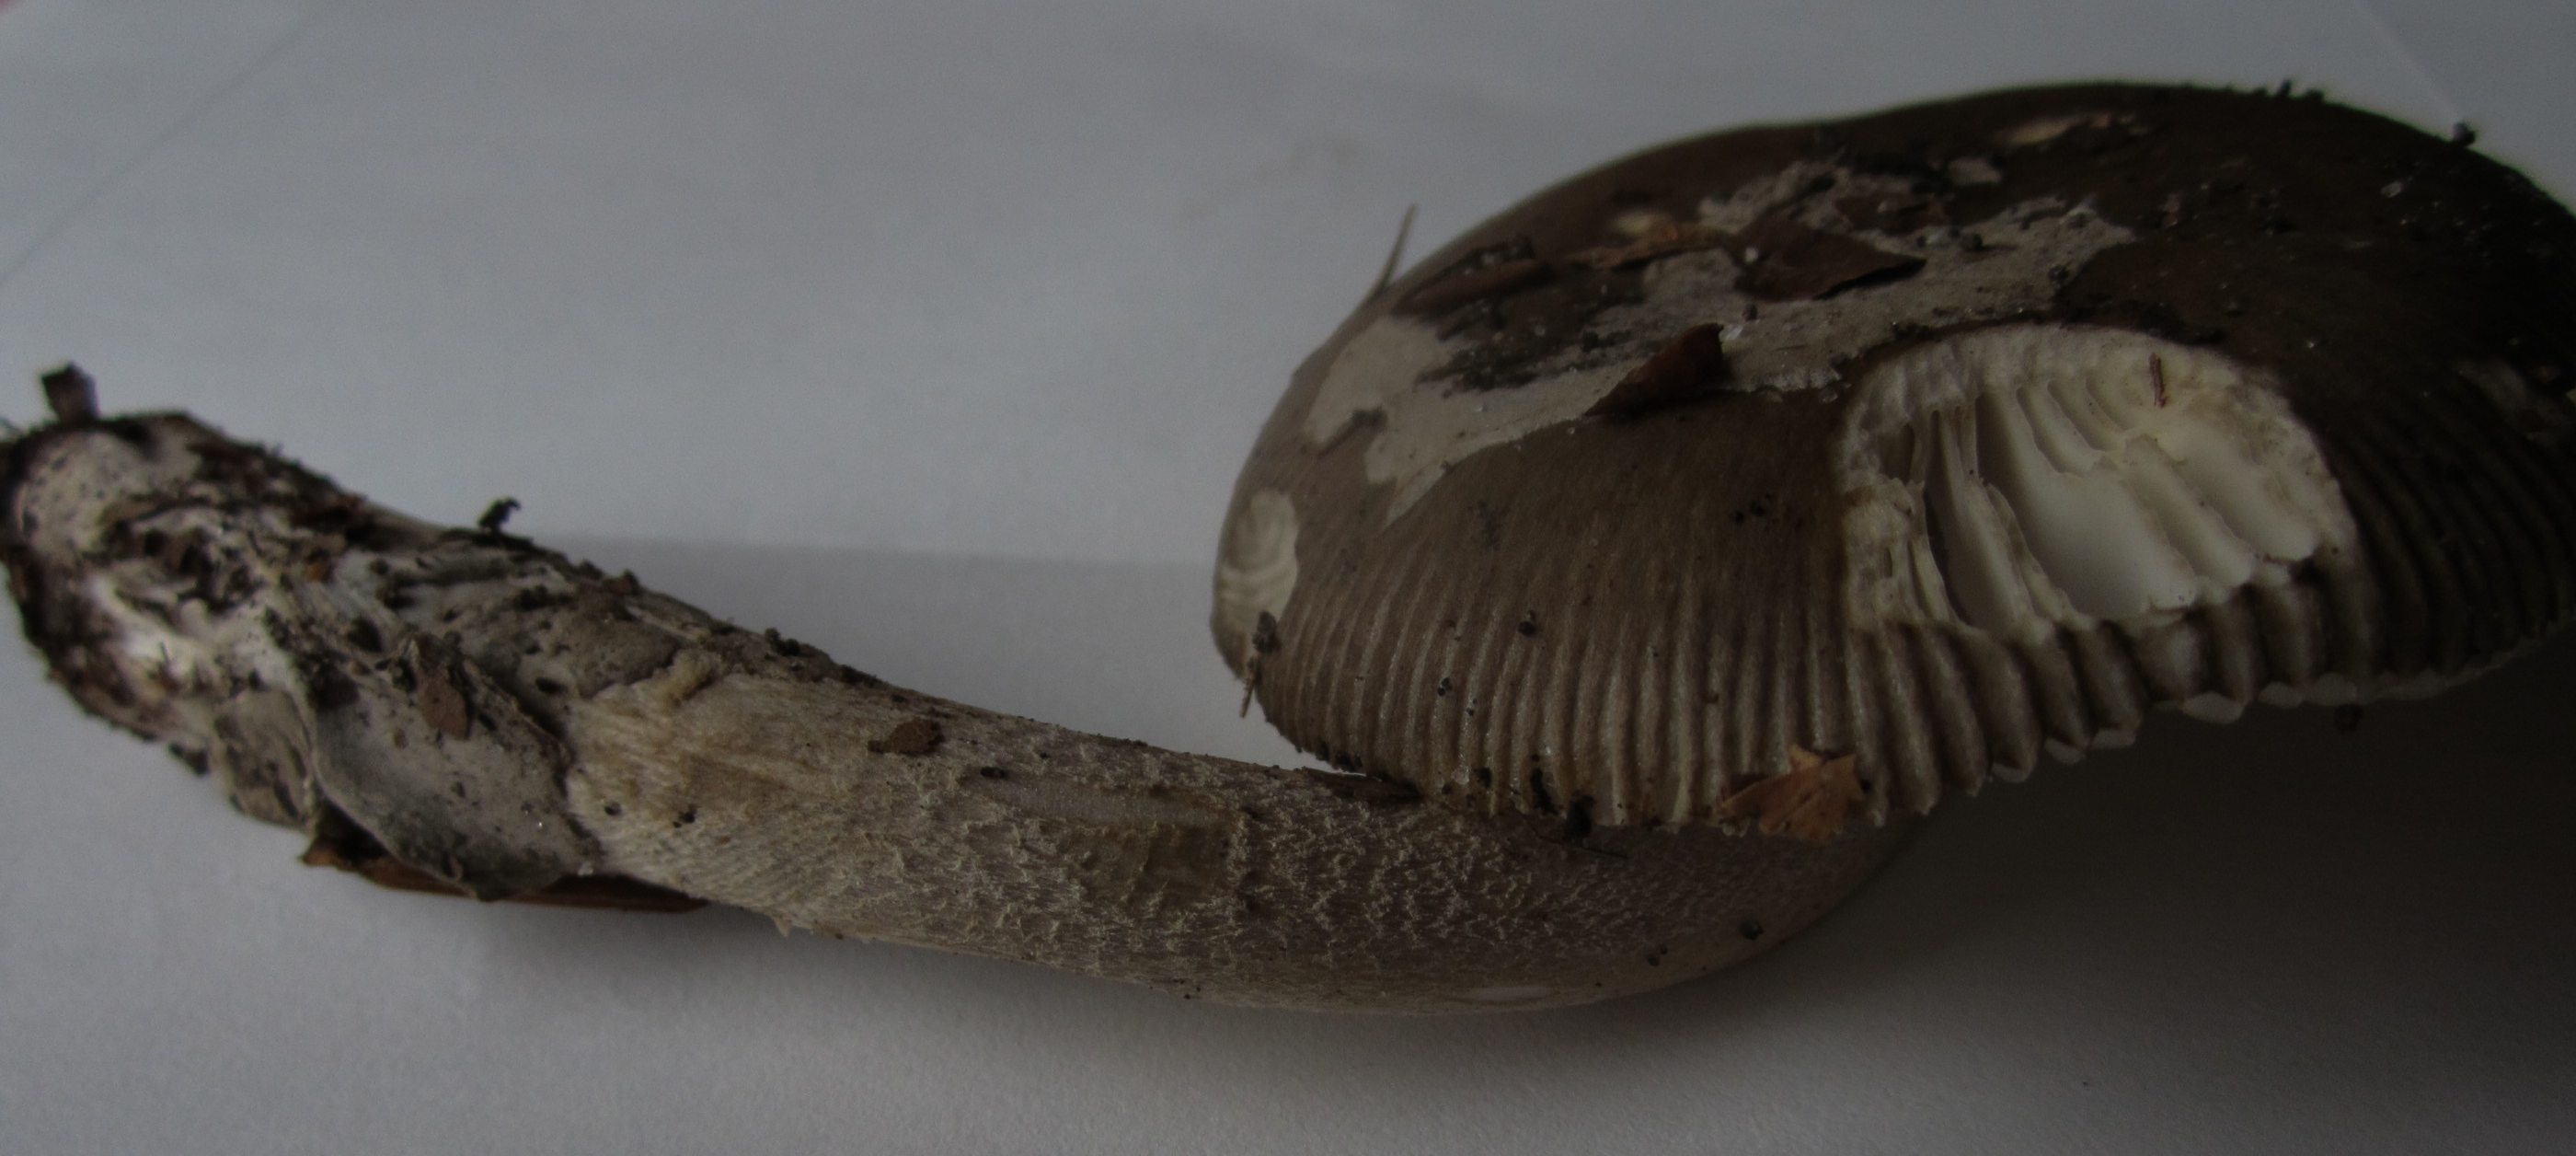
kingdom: Fungi
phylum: Basidiomycota
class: Agaricomycetes
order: Agaricales
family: Amanitaceae
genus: Amanita
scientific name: Amanita submembranacea
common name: gråspættet kam-fluesvamp
